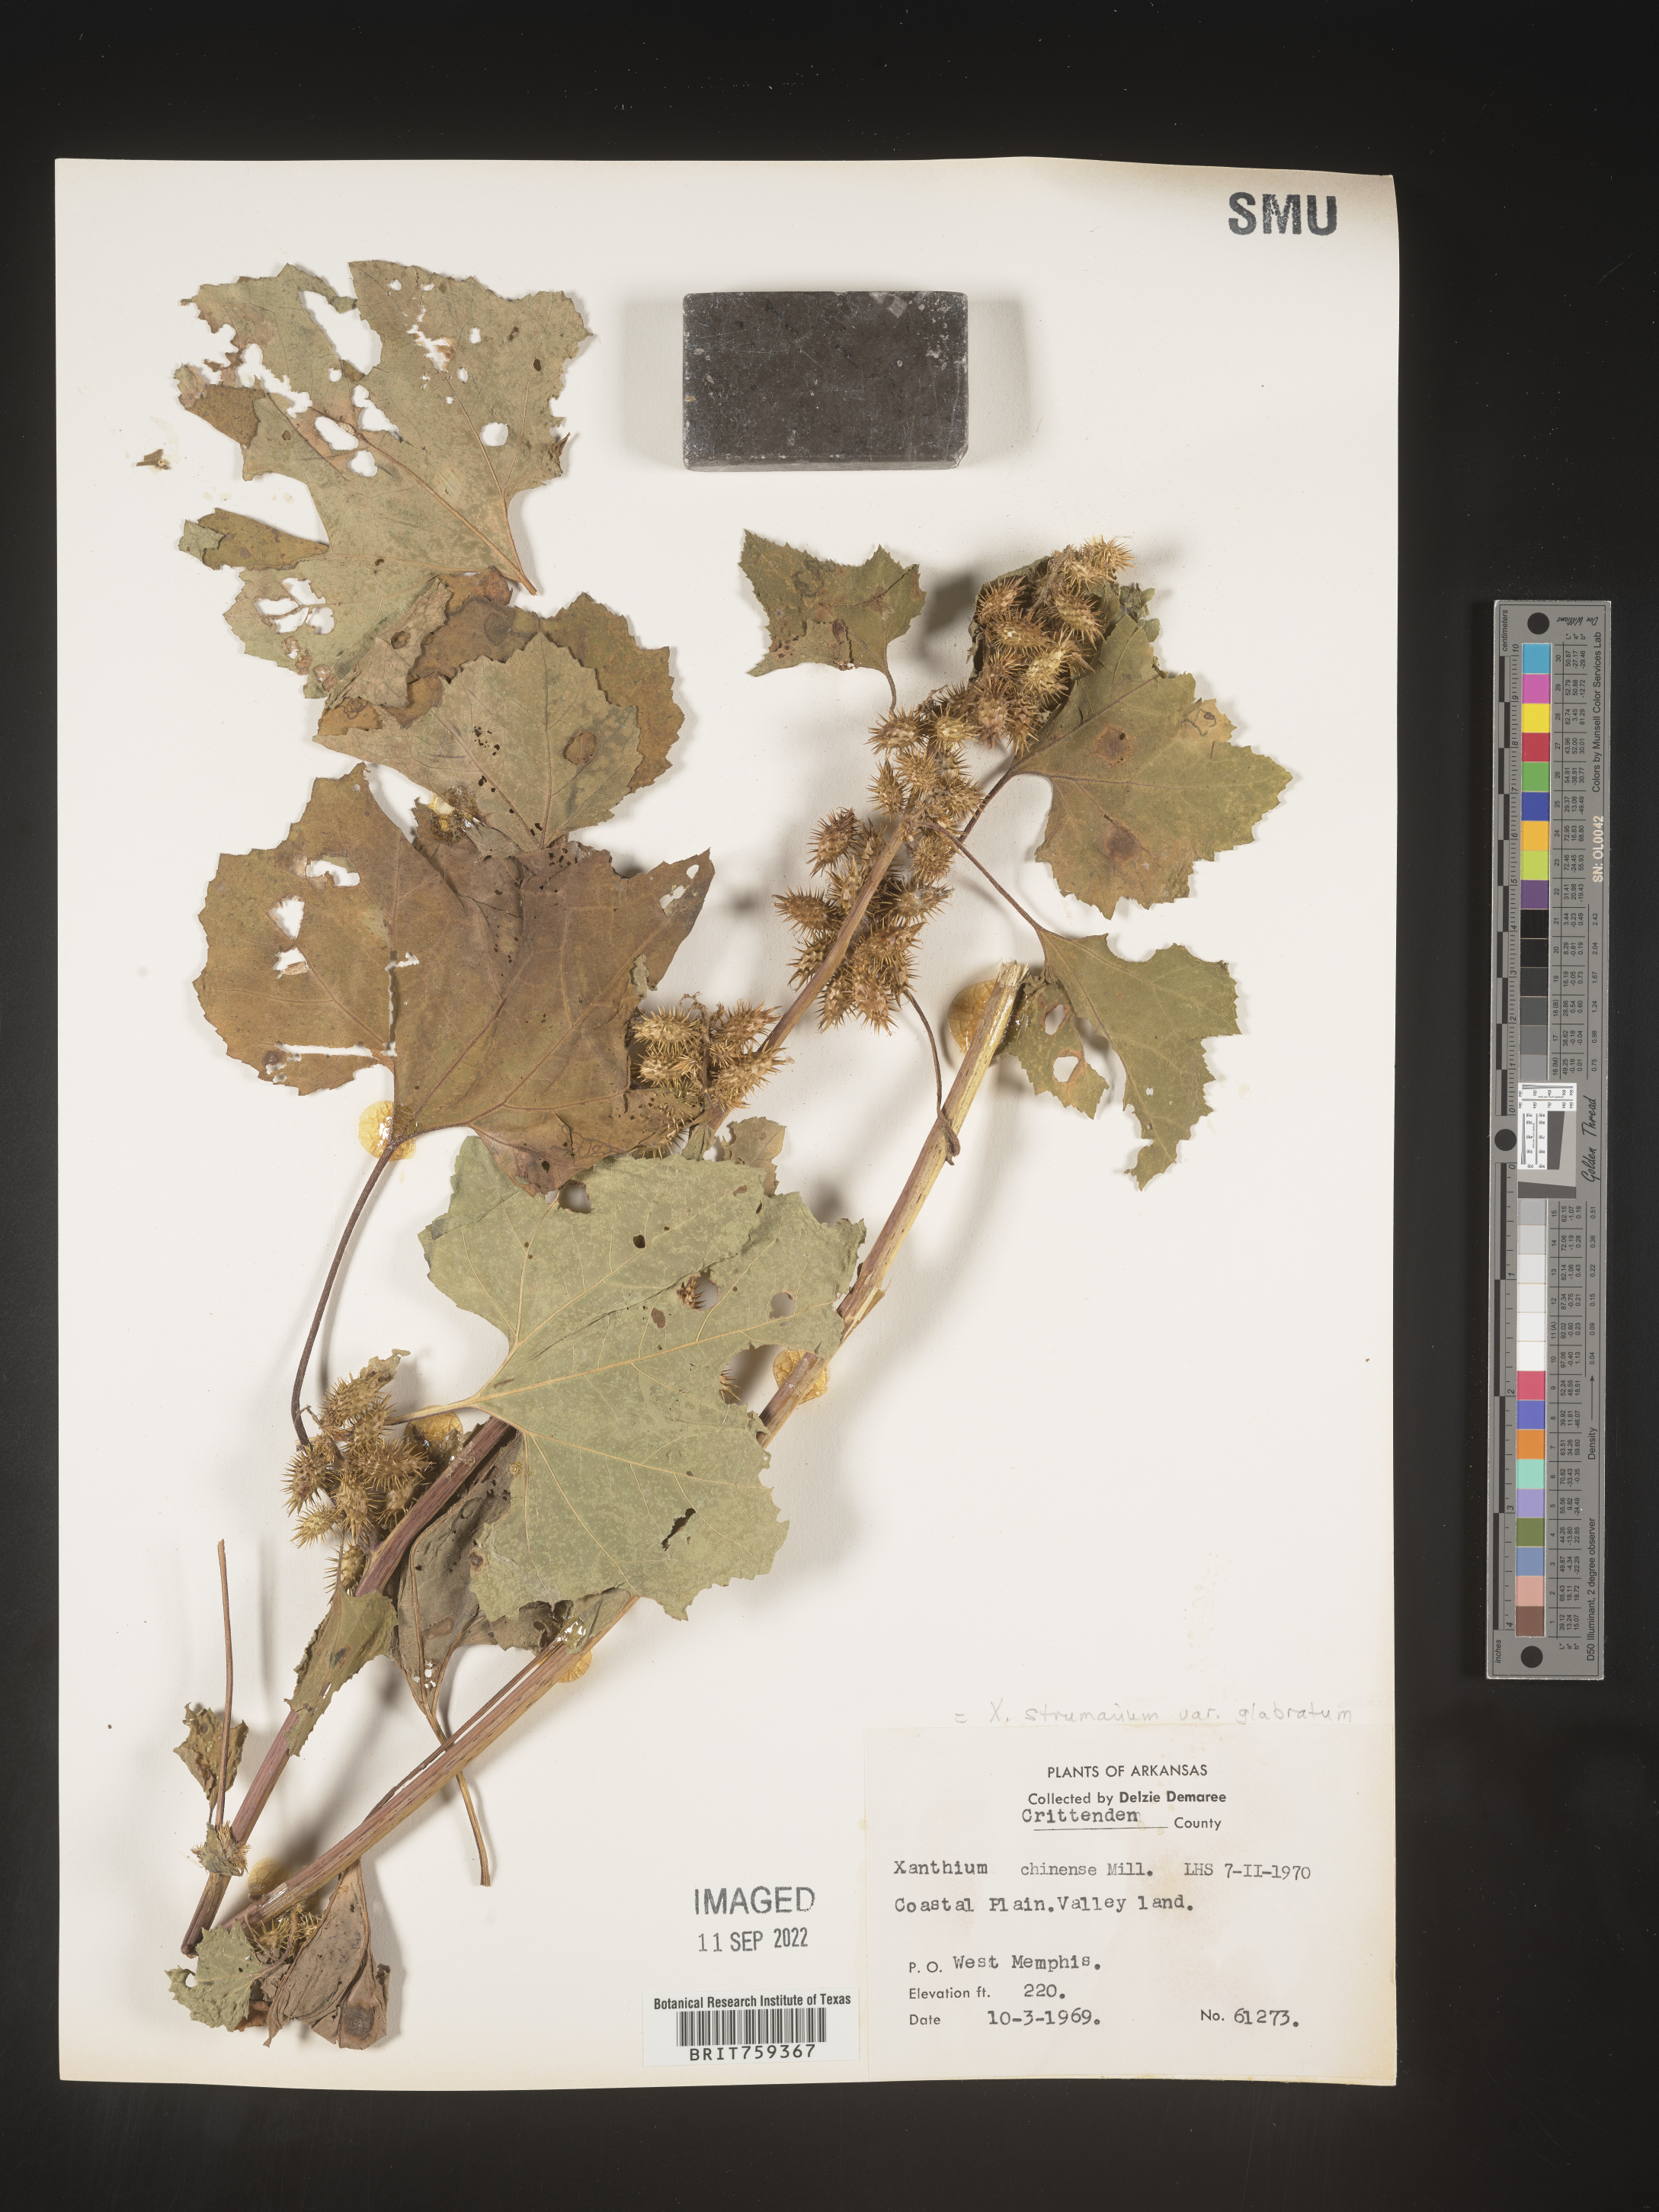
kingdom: Plantae
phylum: Tracheophyta
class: Magnoliopsida
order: Asterales
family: Asteraceae
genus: Xanthium
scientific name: Xanthium occidentale
